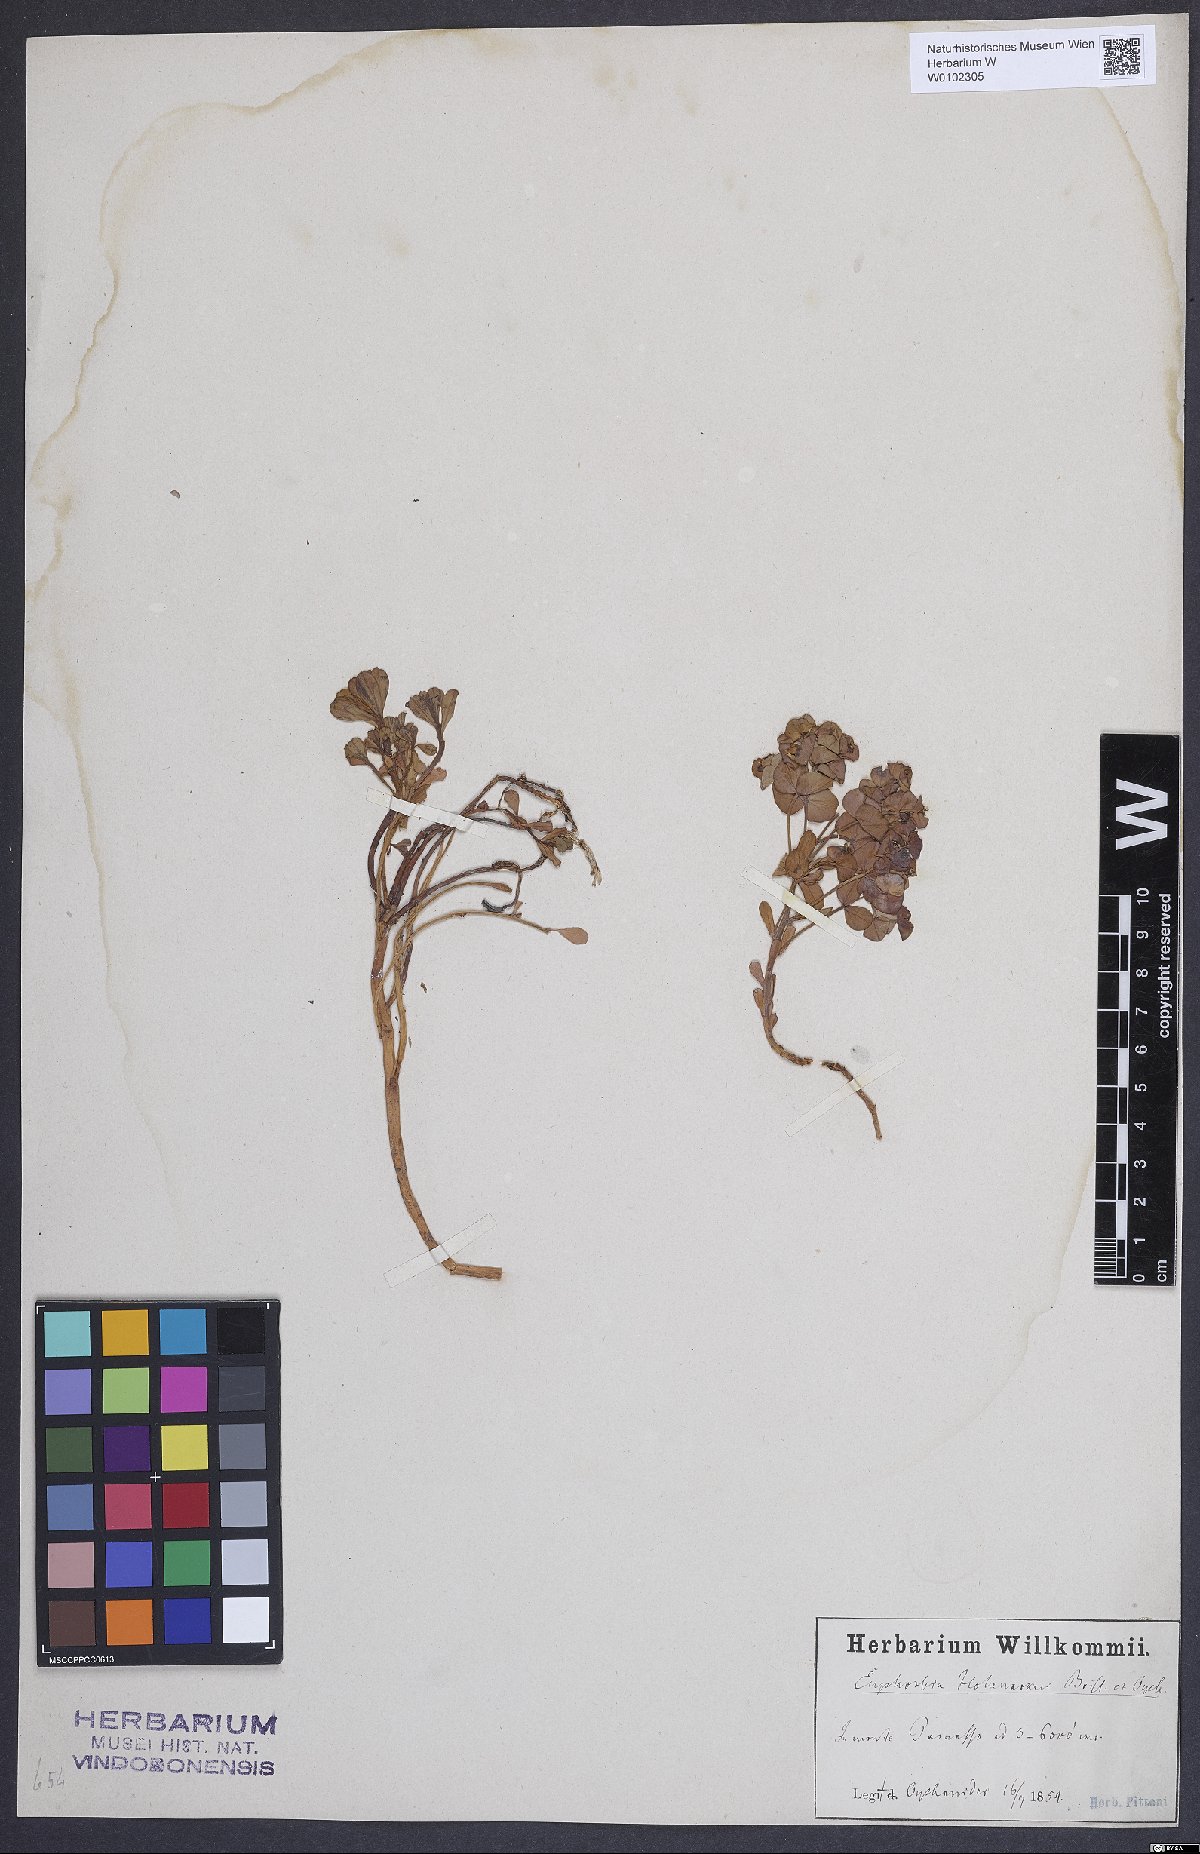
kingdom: Plantae
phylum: Tracheophyta
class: Magnoliopsida
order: Malpighiales
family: Euphorbiaceae
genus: Euphorbia
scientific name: Euphorbia orphanidis
